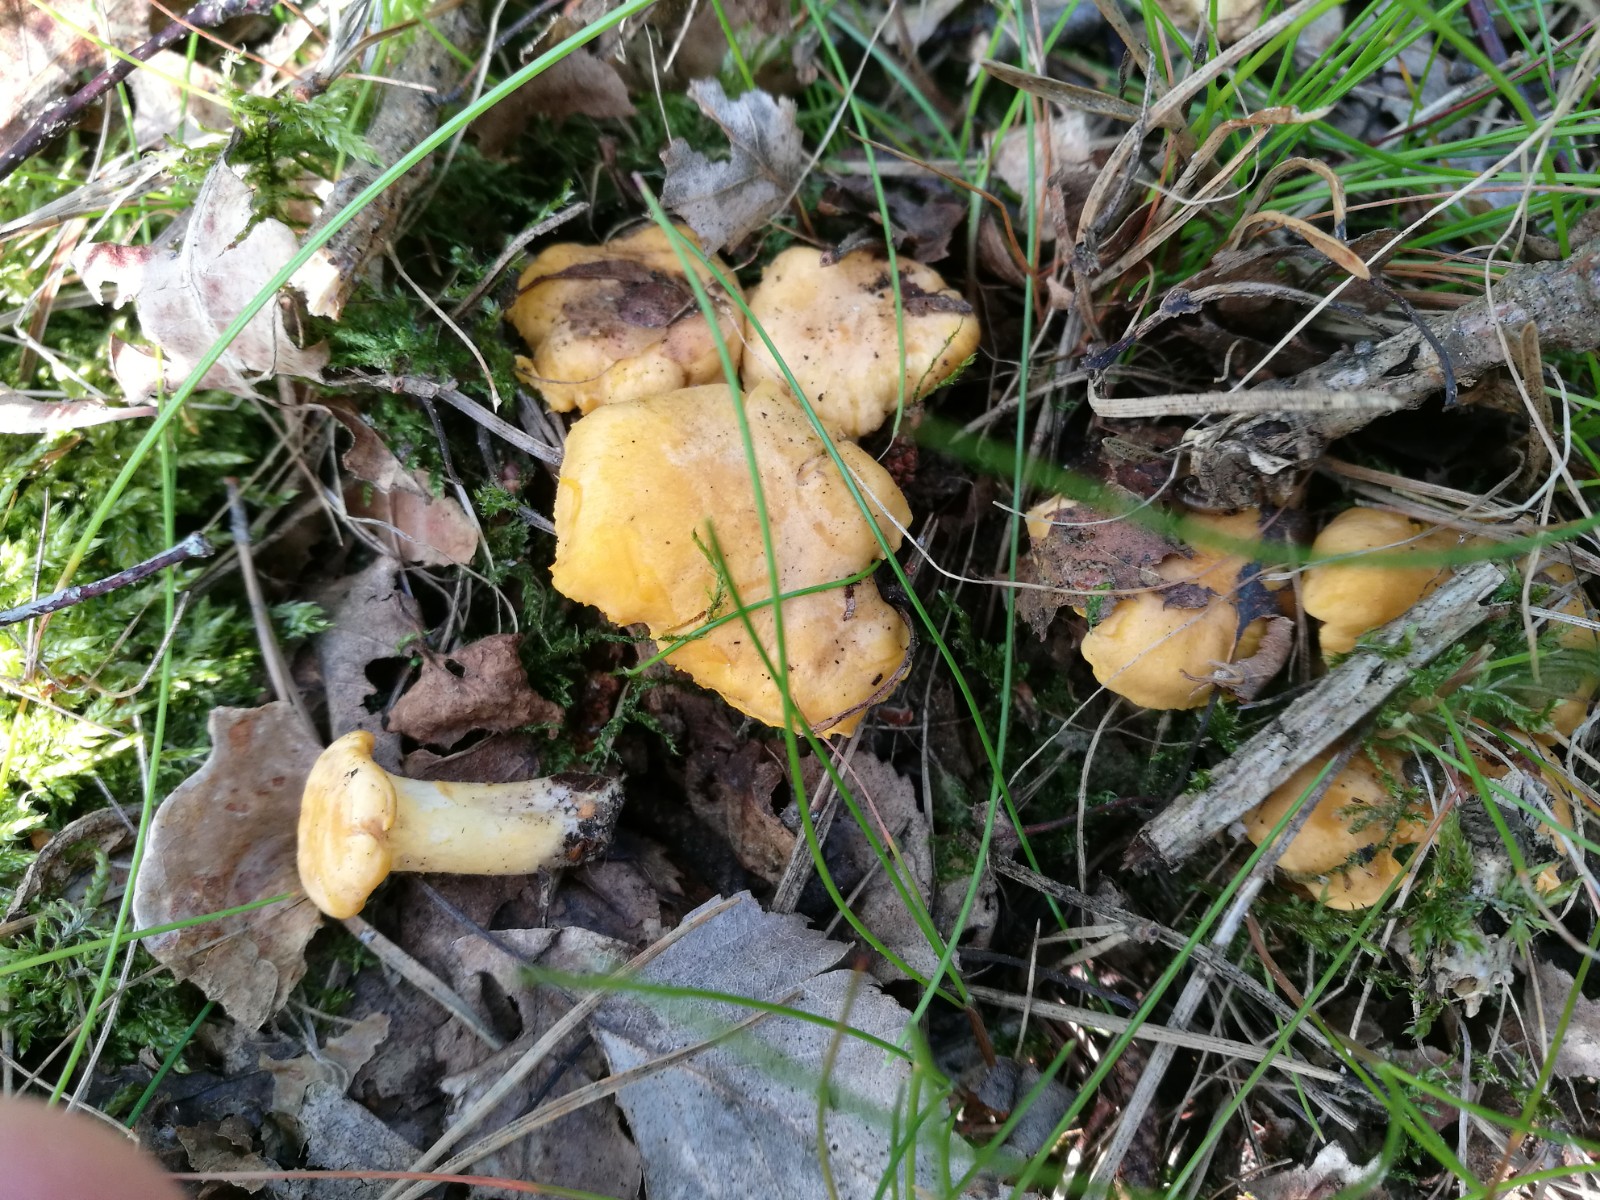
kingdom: Fungi
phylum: Basidiomycota
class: Agaricomycetes
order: Cantharellales
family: Hydnaceae
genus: Cantharellus
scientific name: Cantharellus cibarius
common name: almindelig kantarel
